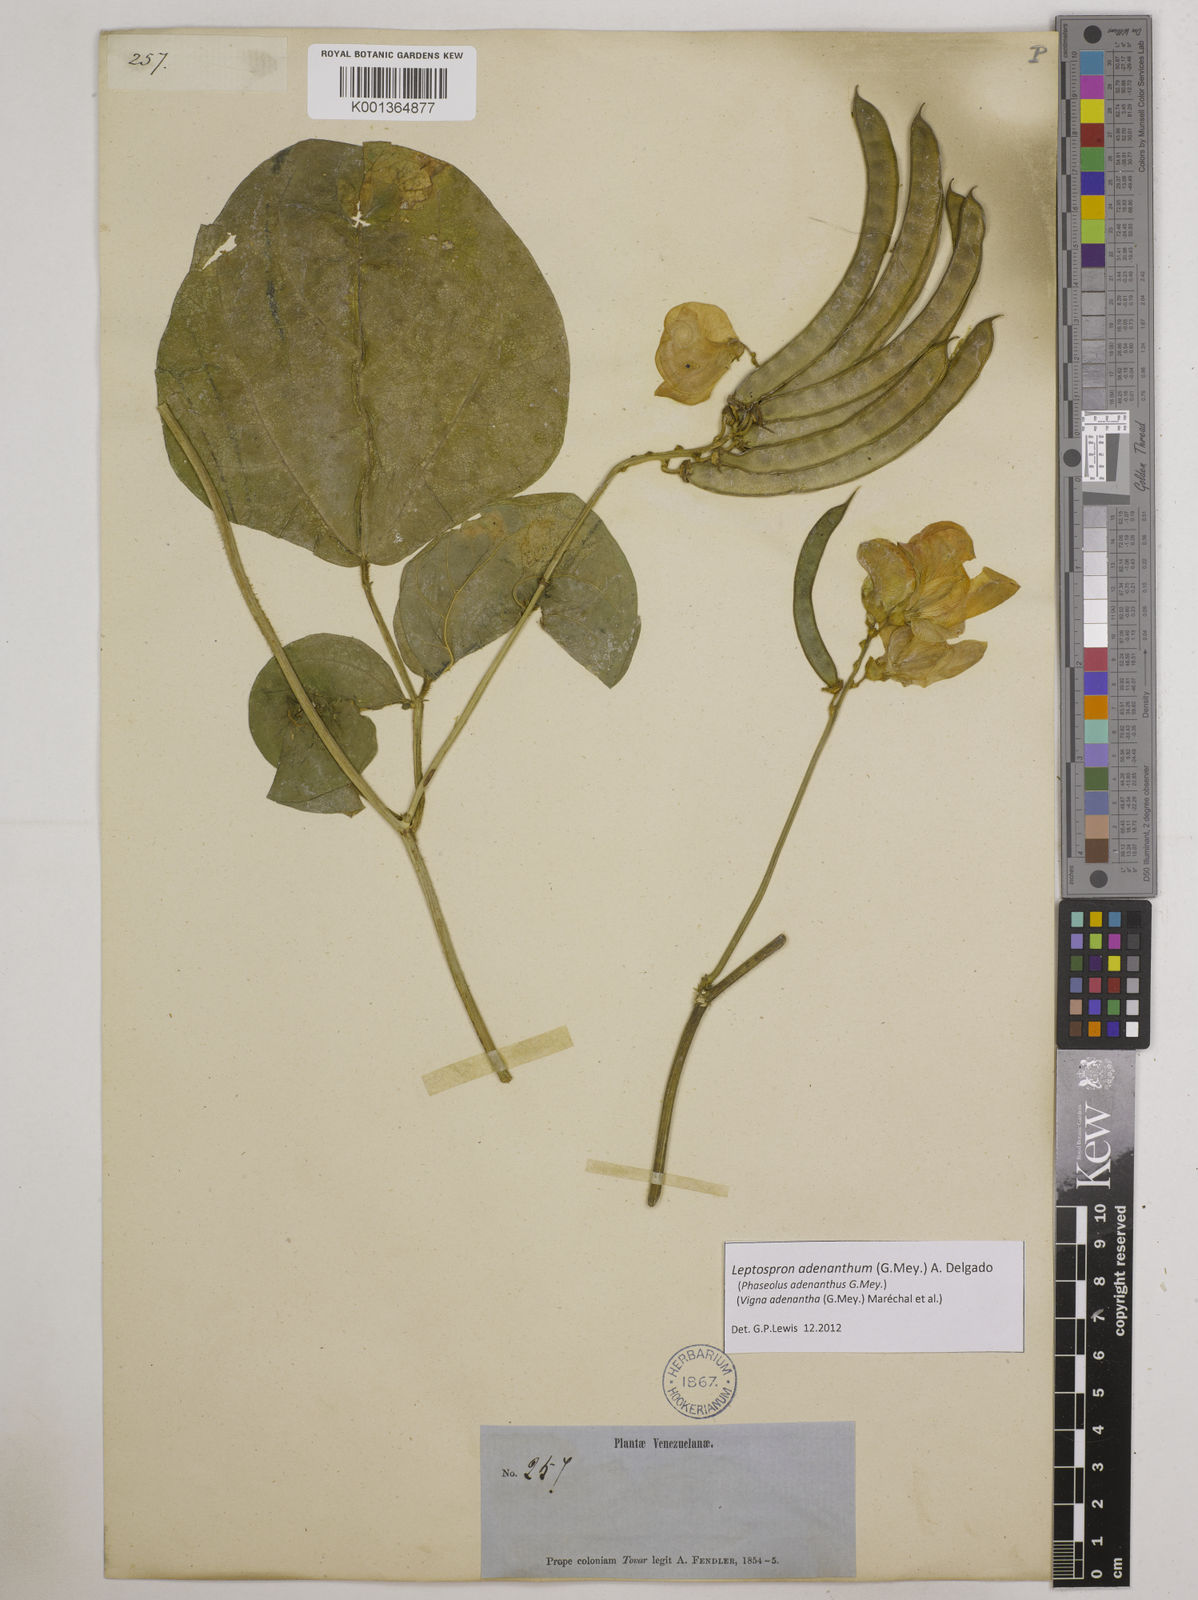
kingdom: Plantae
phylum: Tracheophyta
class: Magnoliopsida
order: Fabales
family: Fabaceae
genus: Leptospron
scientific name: Leptospron adenanthum
